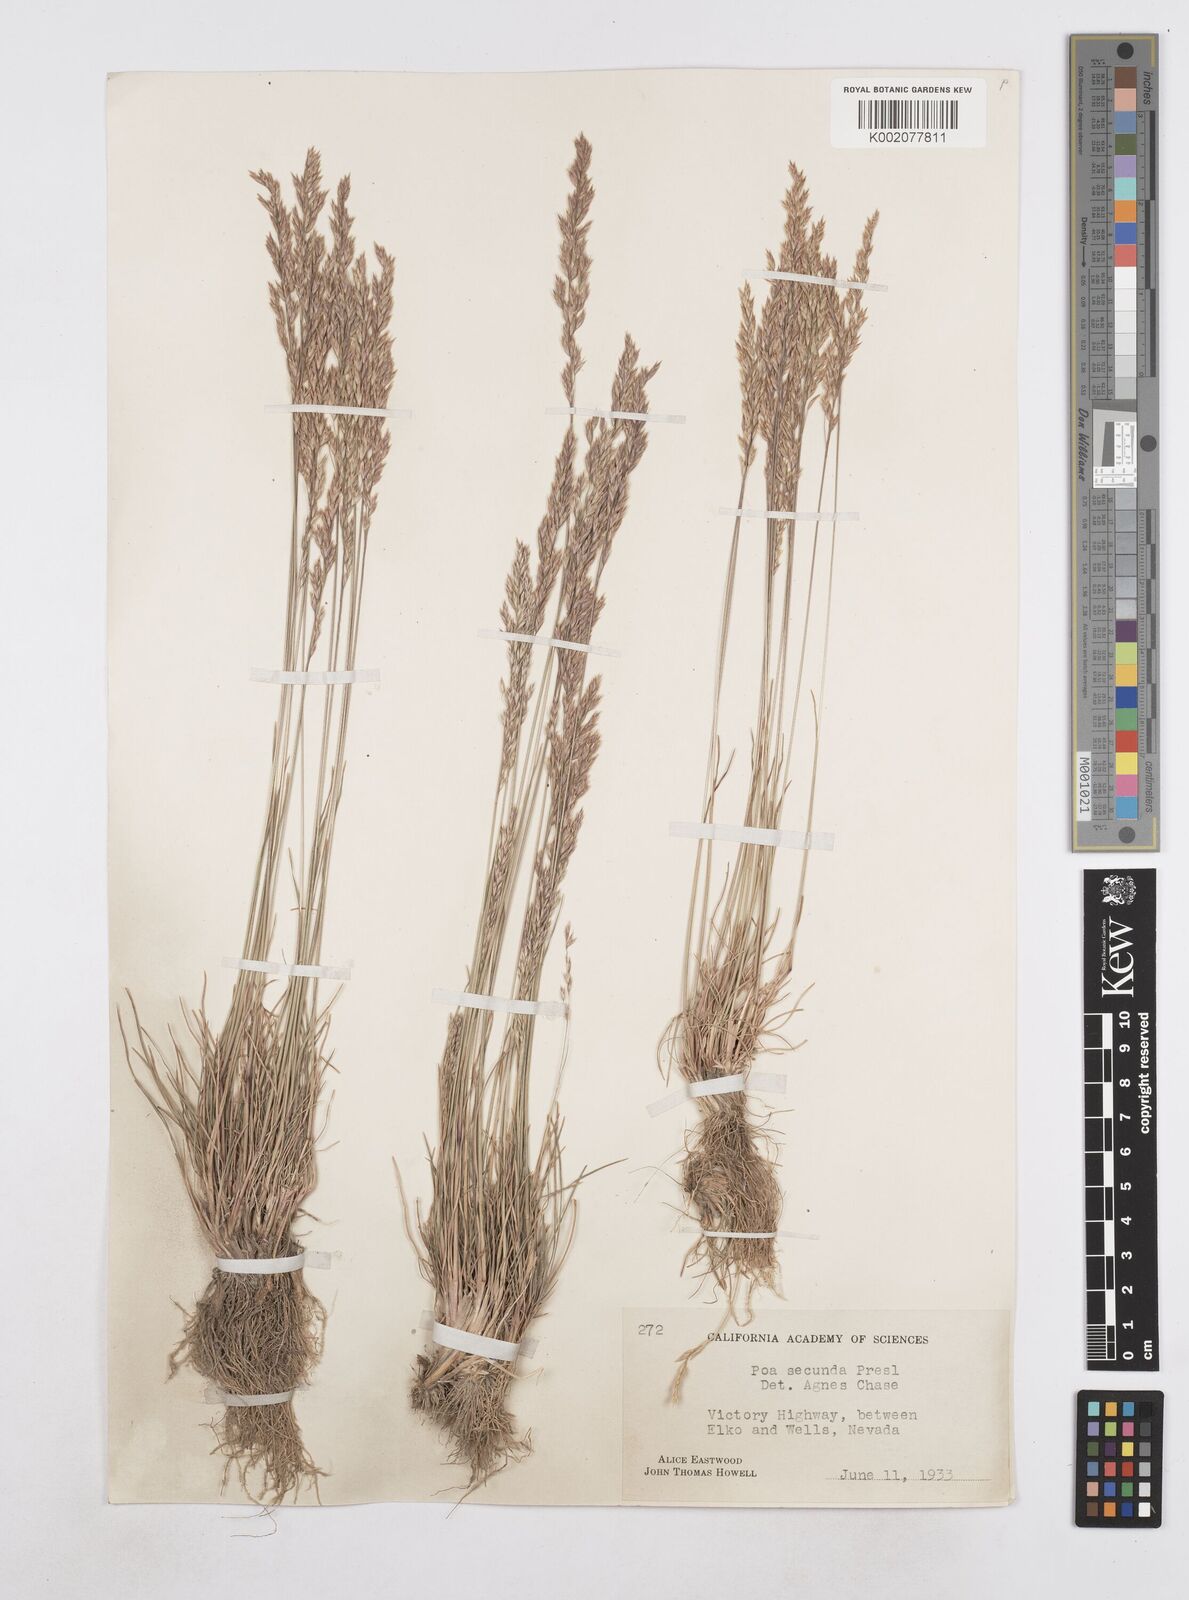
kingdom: Plantae
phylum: Tracheophyta
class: Liliopsida
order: Poales
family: Poaceae
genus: Poa
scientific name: Poa secunda
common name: Sandberg bluegrass
